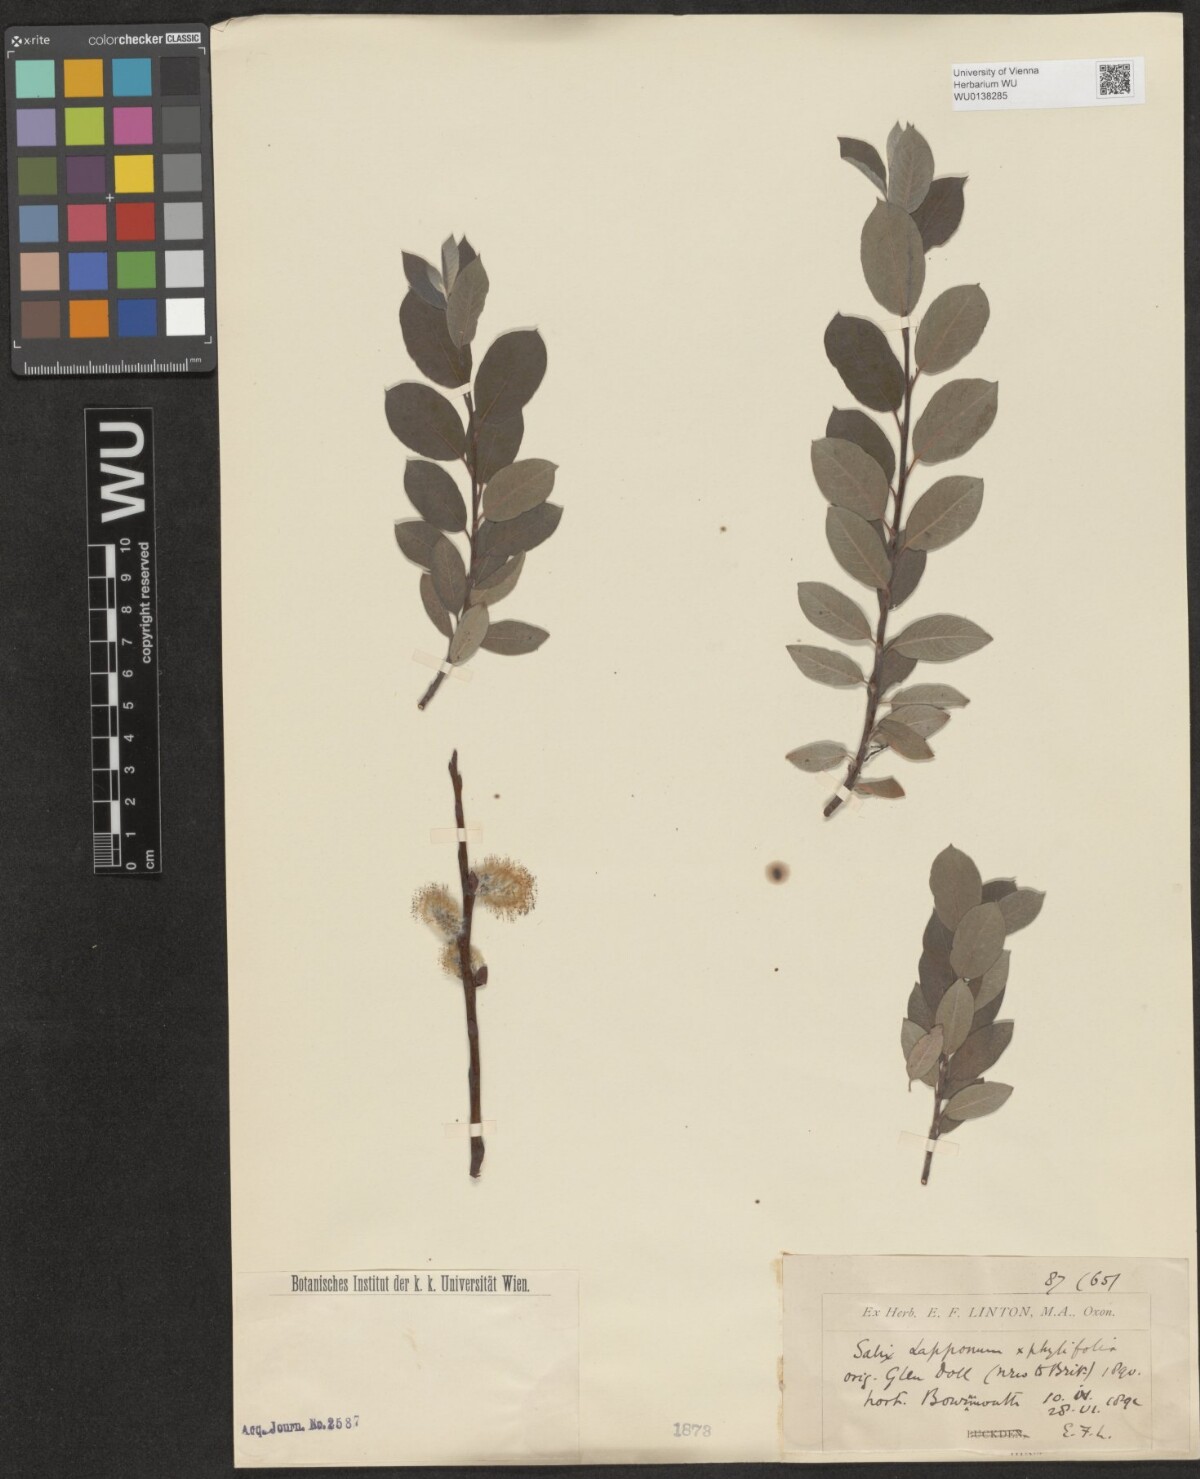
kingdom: Plantae
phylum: Tracheophyta
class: Magnoliopsida
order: Malpighiales
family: Salicaceae
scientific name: Salicaceae
